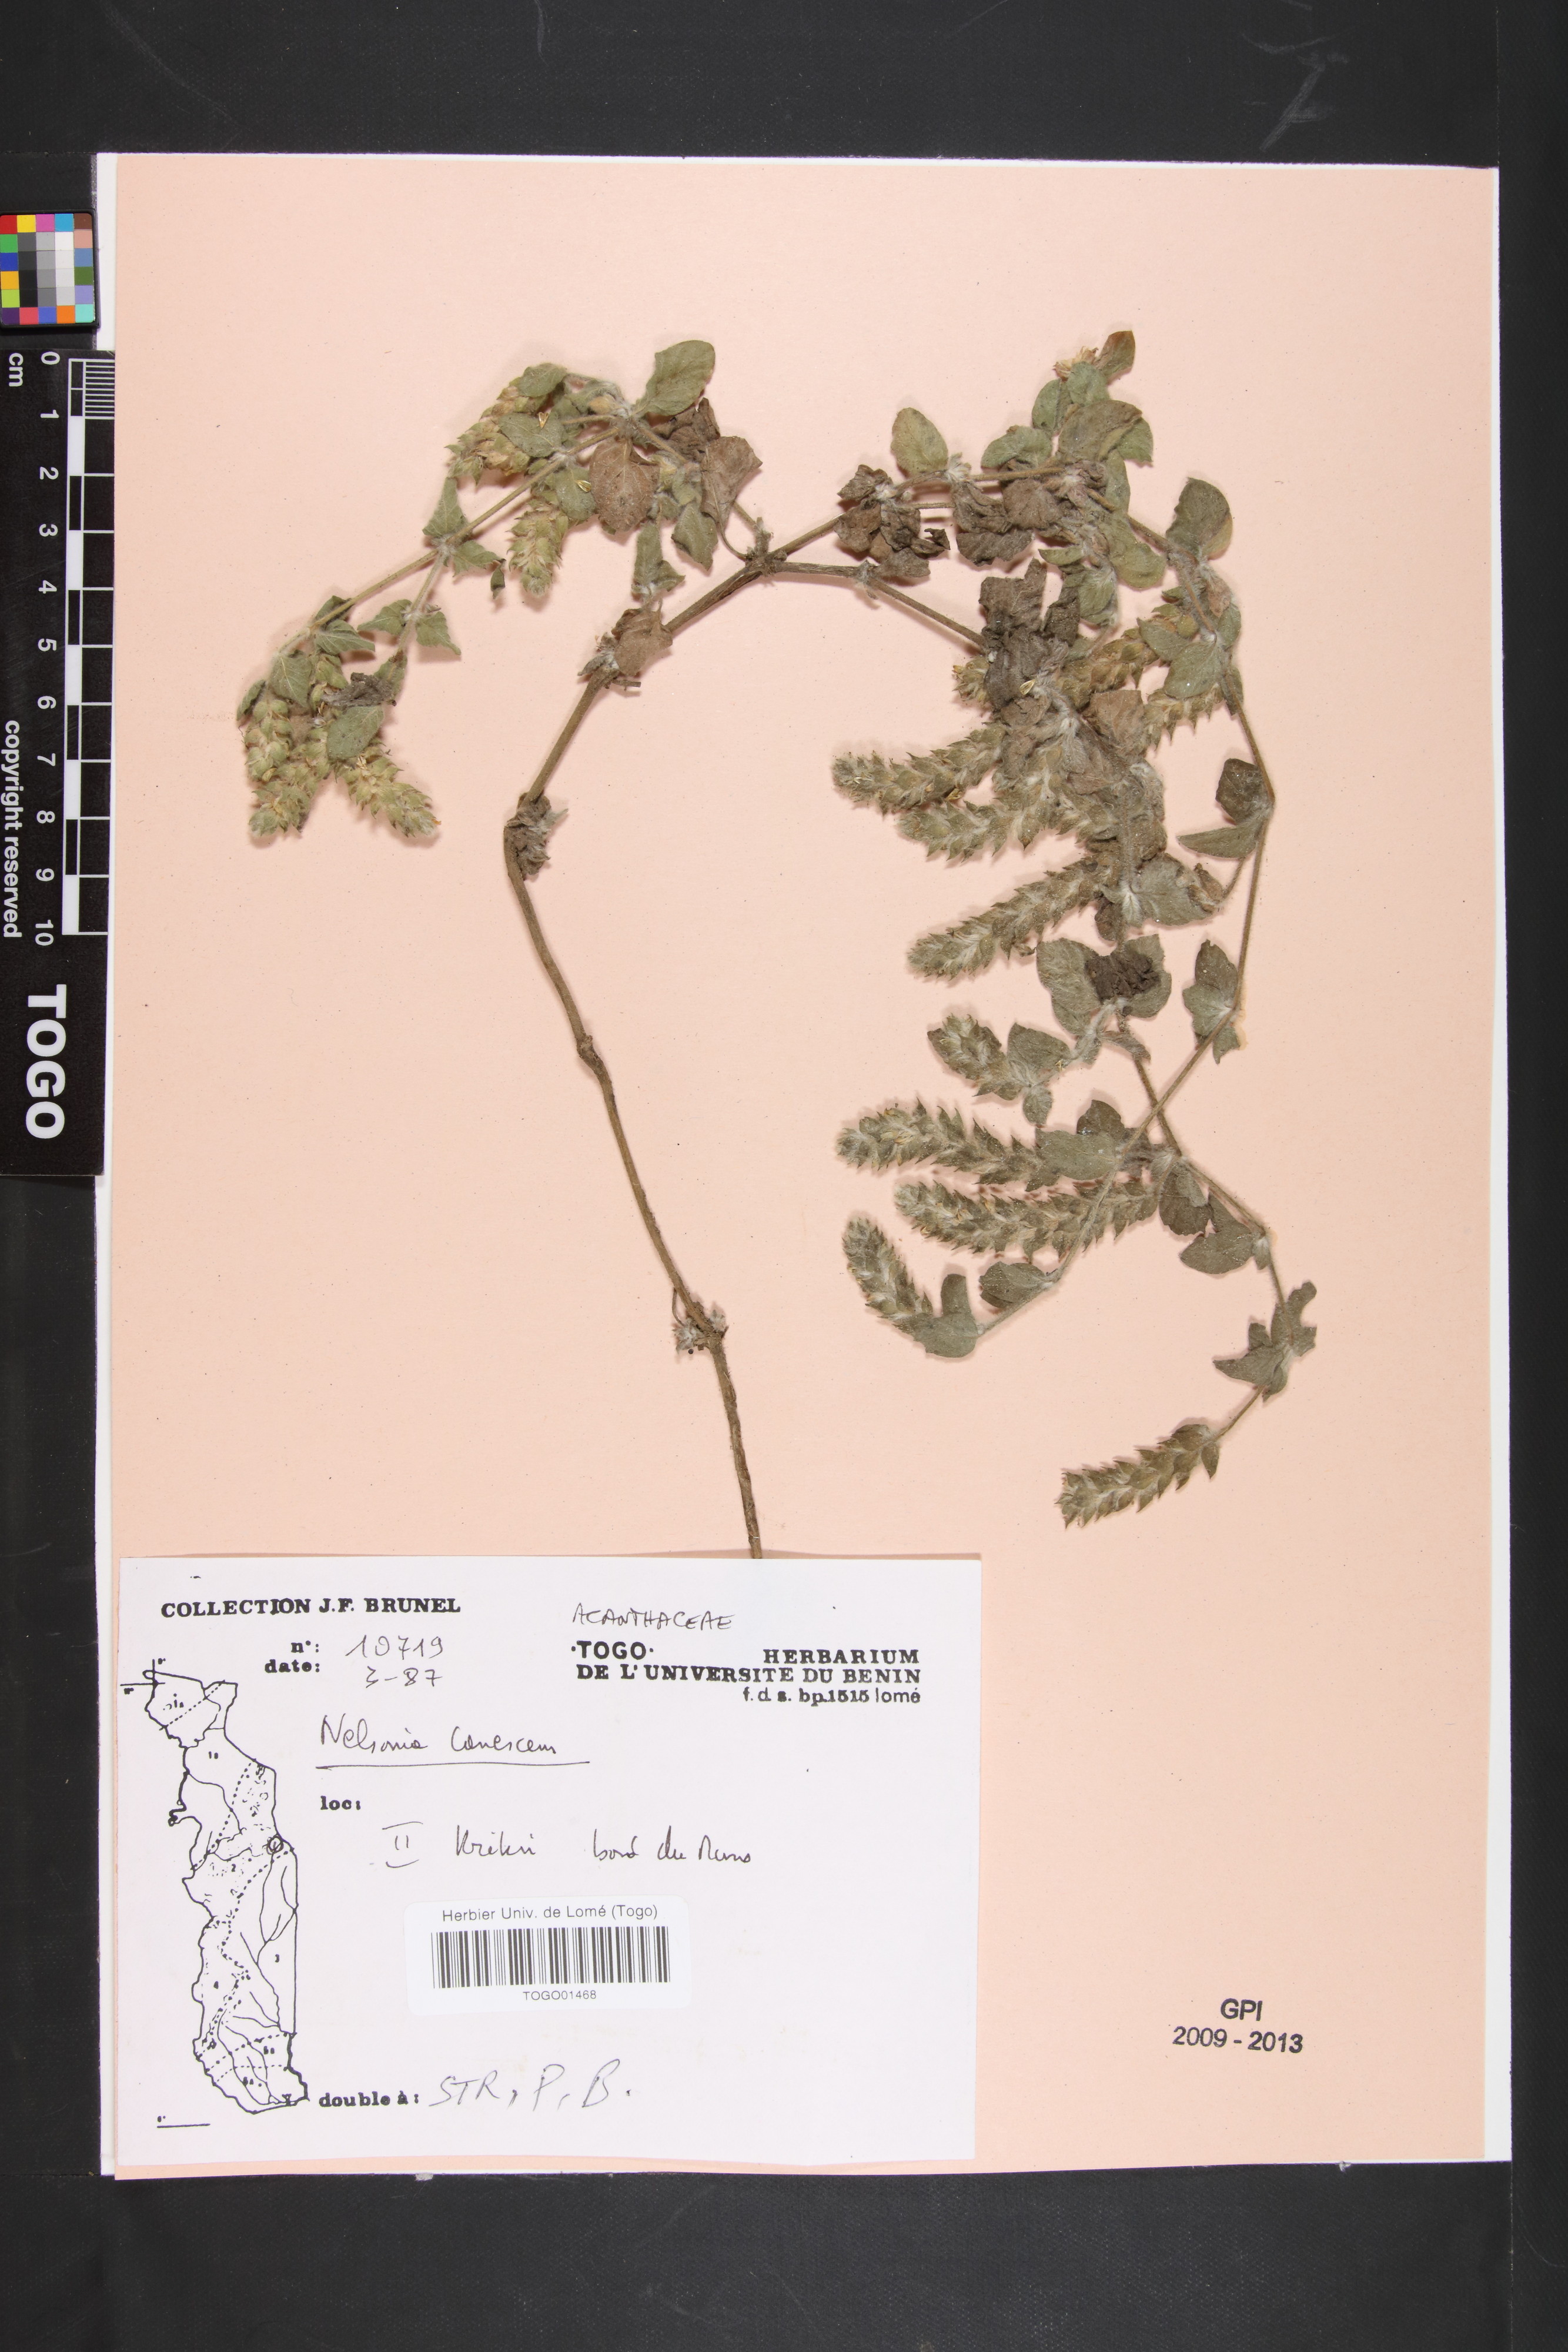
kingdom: Plantae
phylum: Tracheophyta
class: Magnoliopsida
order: Lamiales
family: Acanthaceae
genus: Nelsonia
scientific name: Nelsonia canescens
